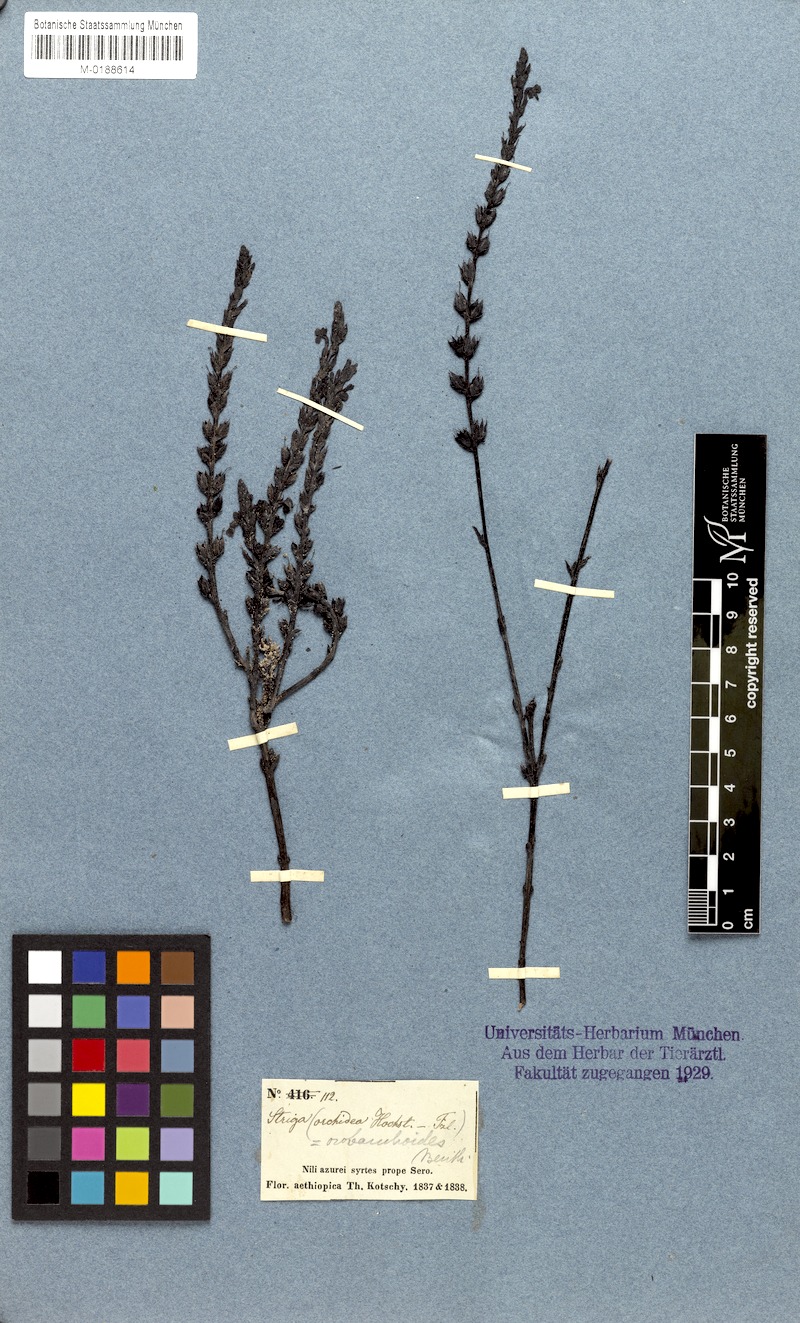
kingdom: Plantae
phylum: Tracheophyta
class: Magnoliopsida
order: Lamiales
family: Orobanchaceae
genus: Striga
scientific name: Striga gesnerioides
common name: Cowpea witchweed
